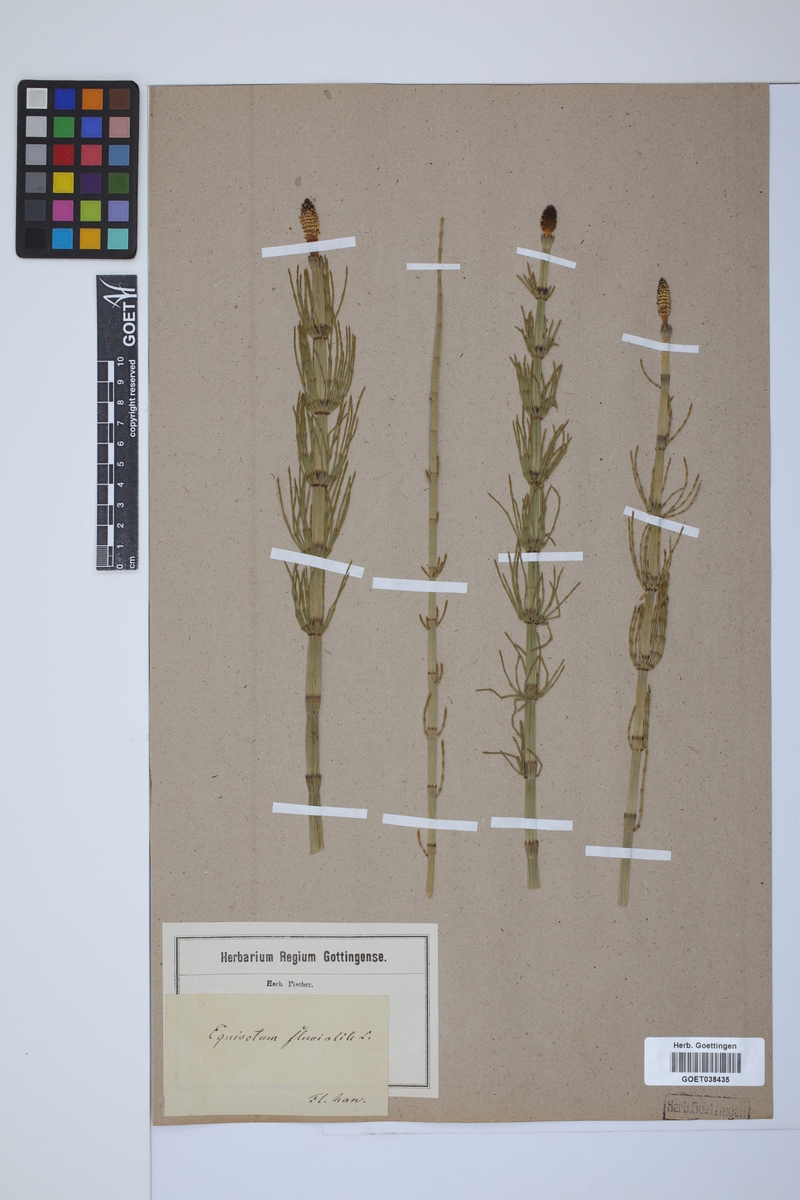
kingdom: Plantae
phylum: Tracheophyta
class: Polypodiopsida
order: Equisetales
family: Equisetaceae
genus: Equisetum
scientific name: Equisetum fluviatile
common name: Water horsetail
